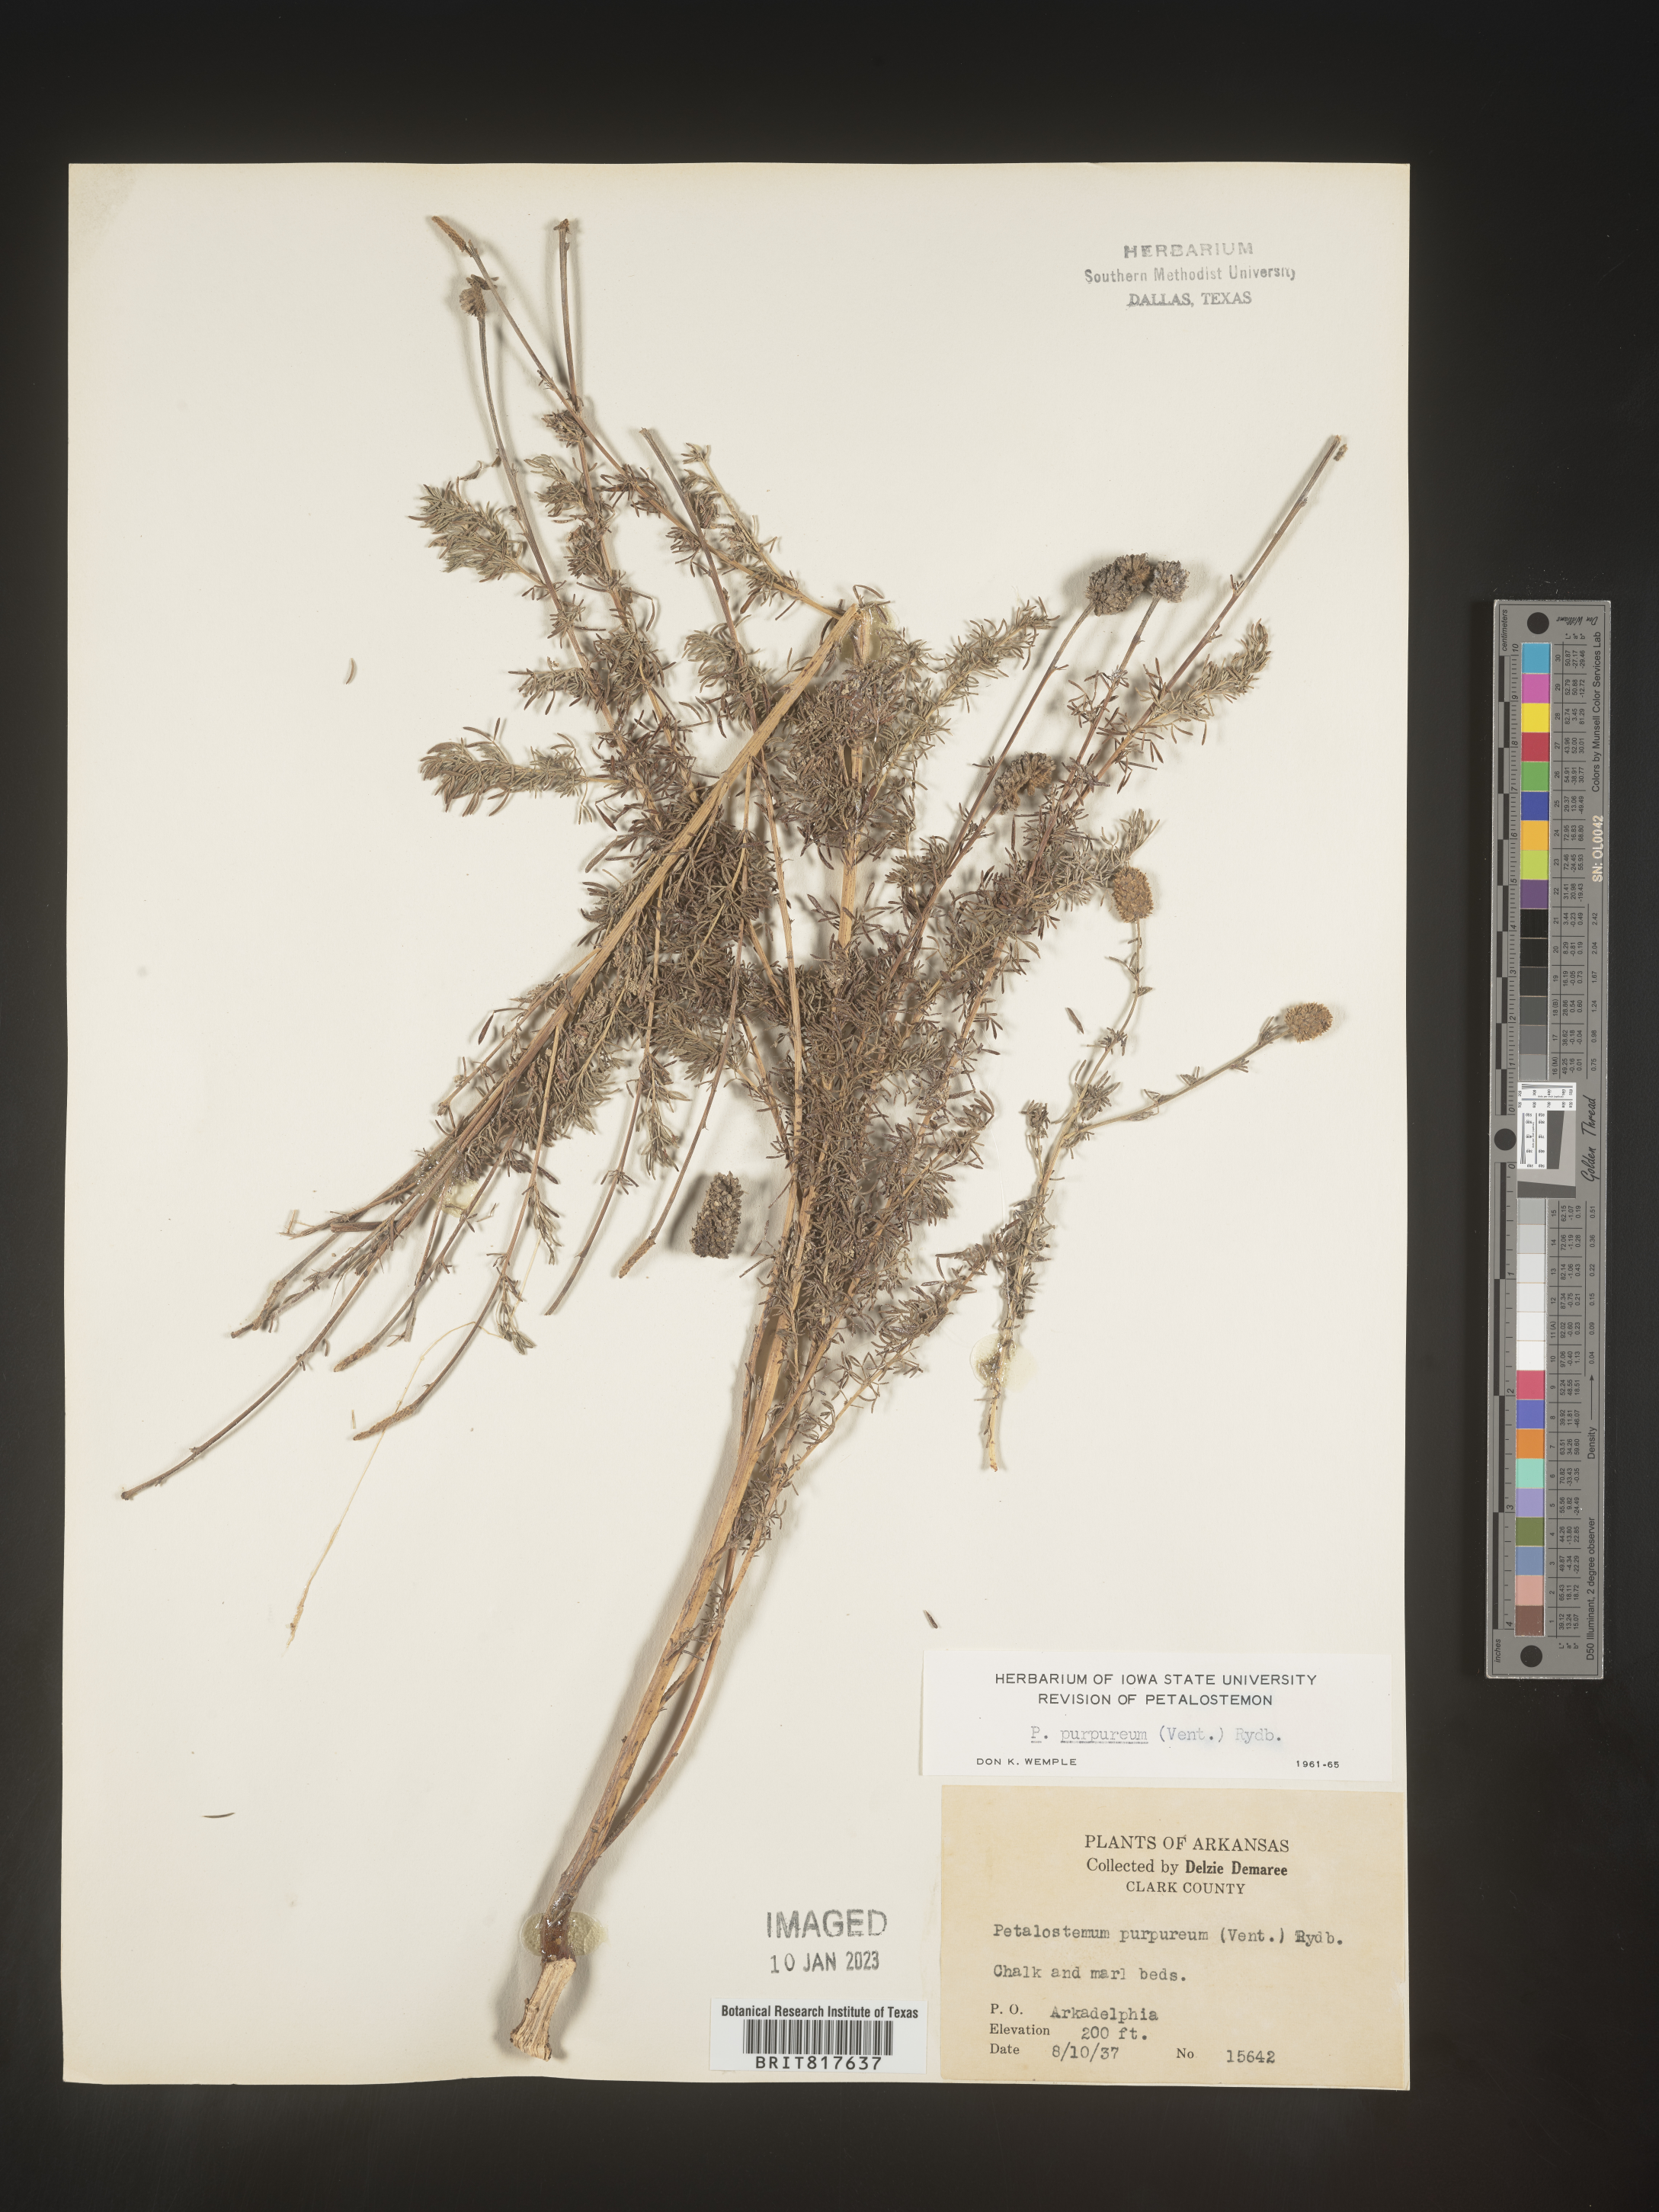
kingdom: Plantae
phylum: Tracheophyta
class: Magnoliopsida
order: Fabales
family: Fabaceae
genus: Dalea
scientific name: Dalea purpurea
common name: Purple prairie-clover
